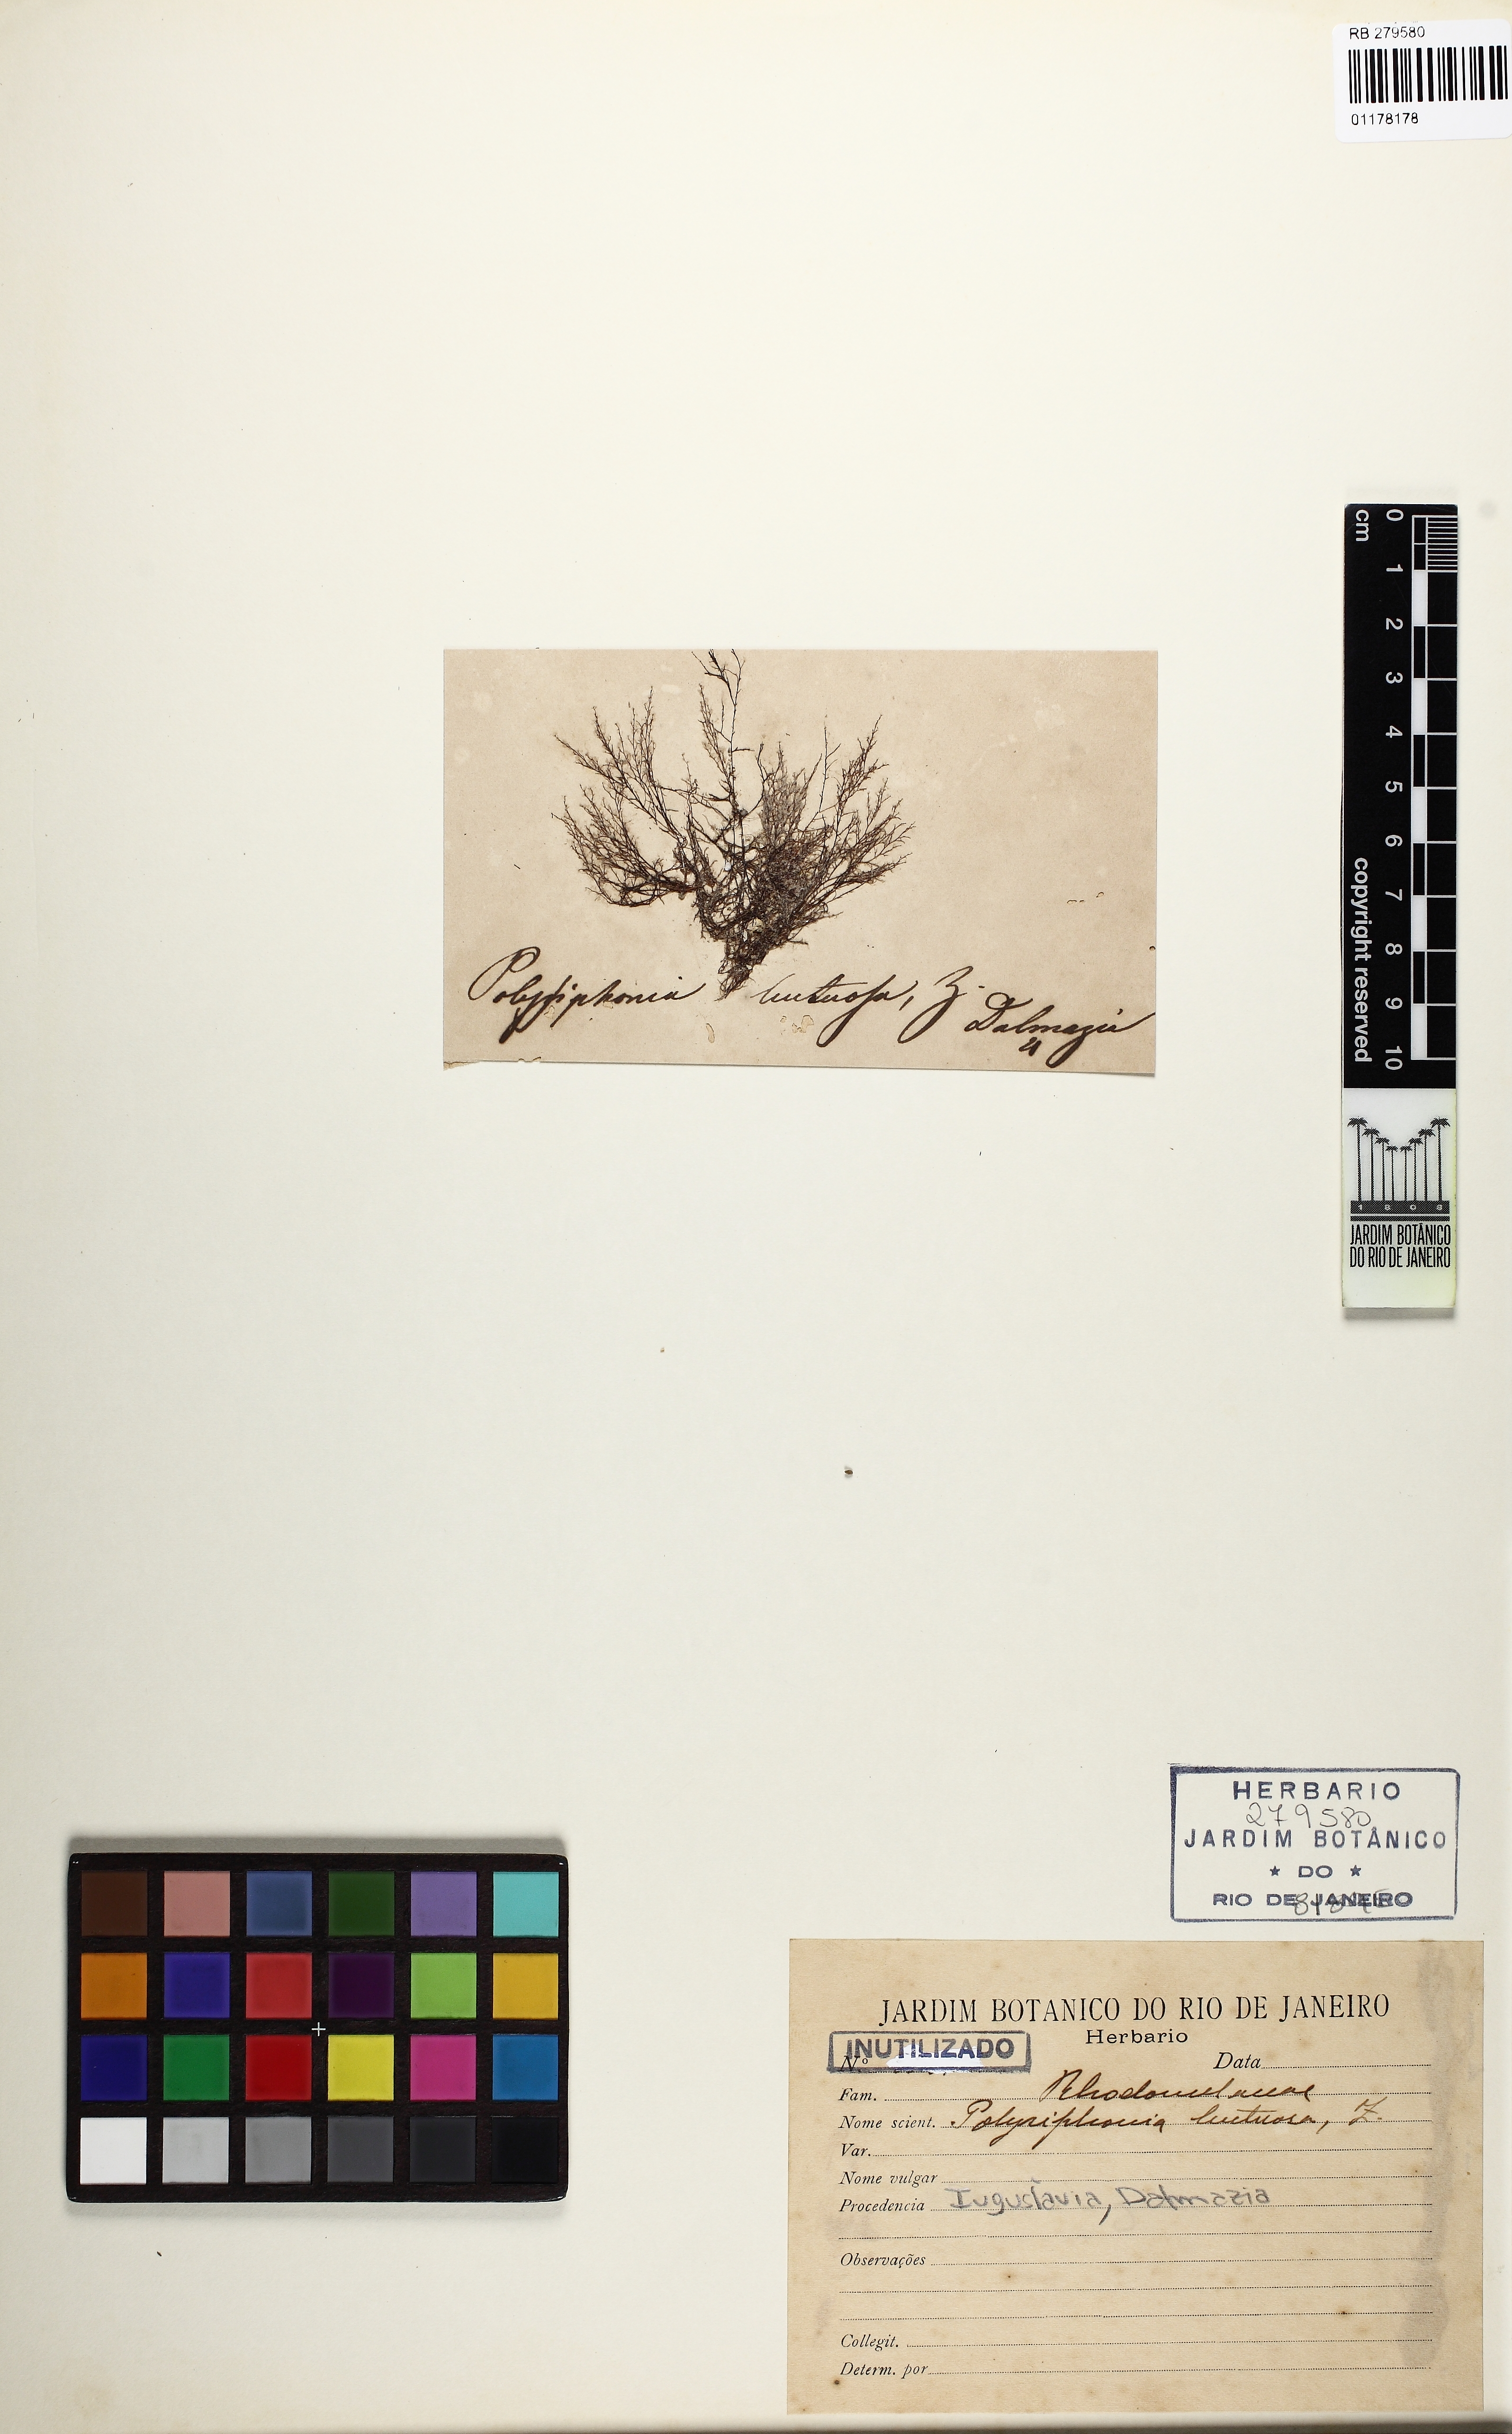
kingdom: Plantae
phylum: Rhodophyta
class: Florideophyceae
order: Ceramiales
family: Rhodomelaceae
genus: Polysiphonia
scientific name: Polysiphonia
